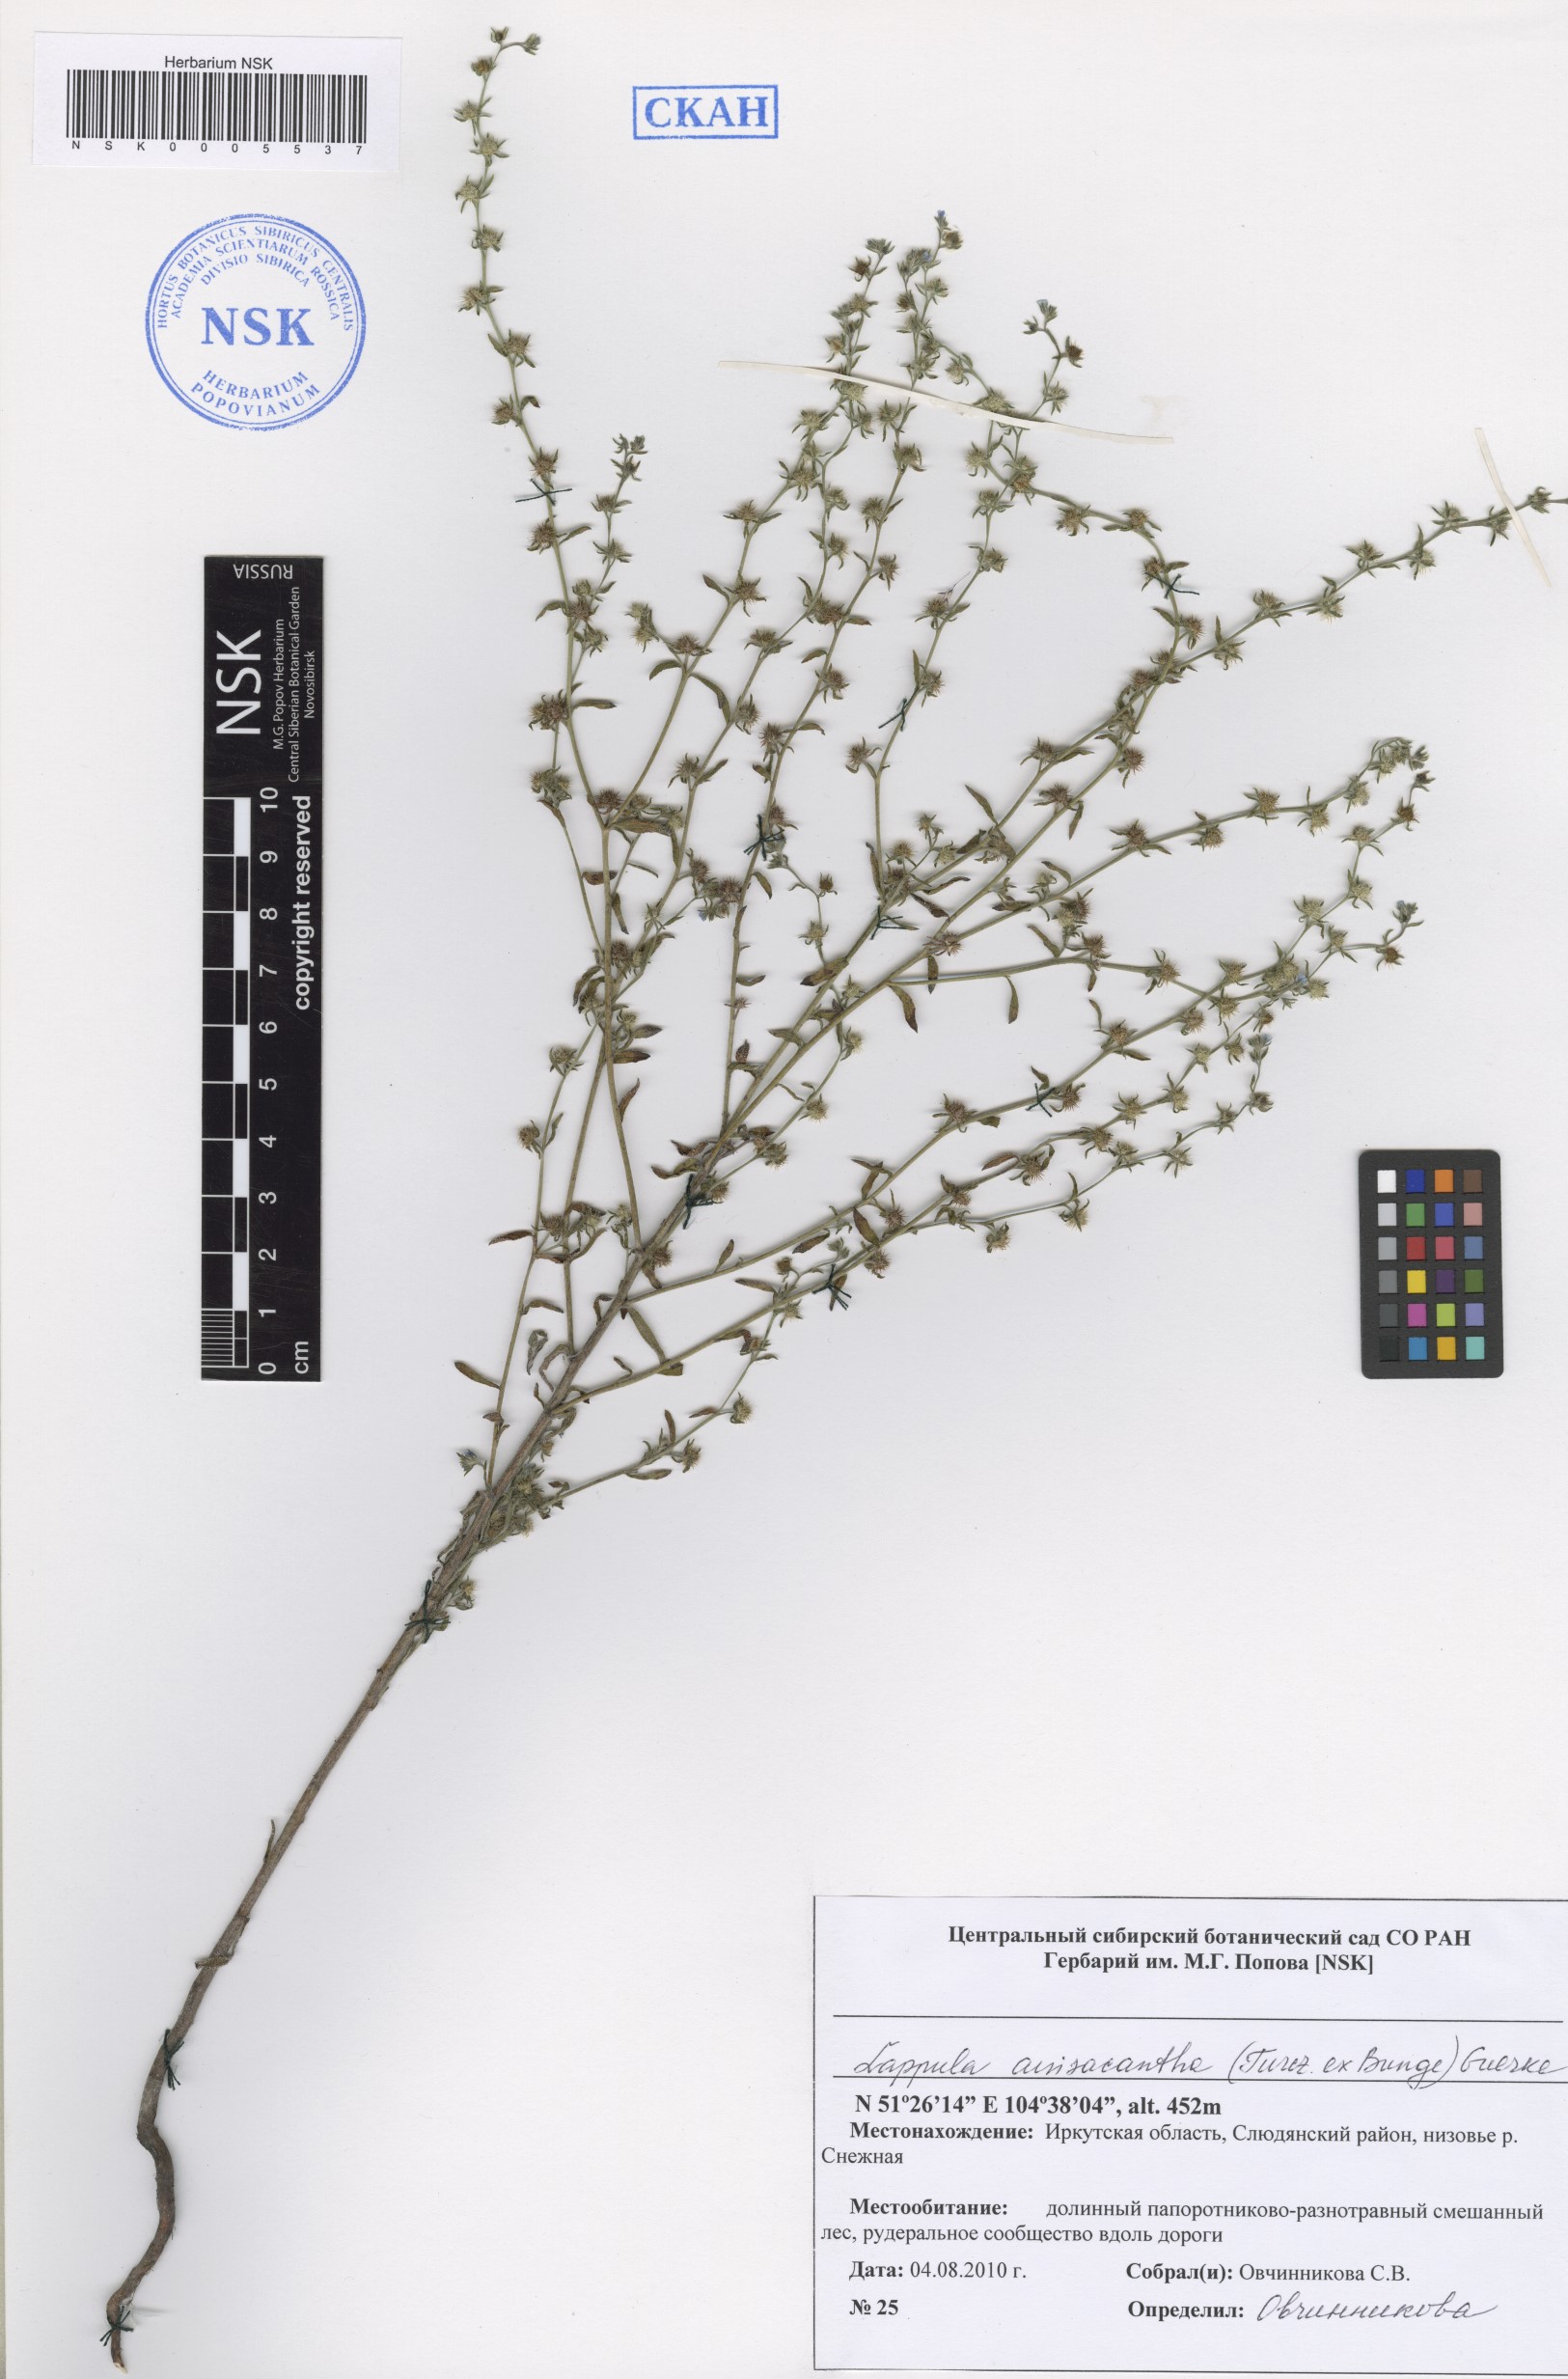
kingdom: Plantae
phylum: Tracheophyta
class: Magnoliopsida
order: Boraginales
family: Boraginaceae
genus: Lappula
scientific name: Lappula intermedia
